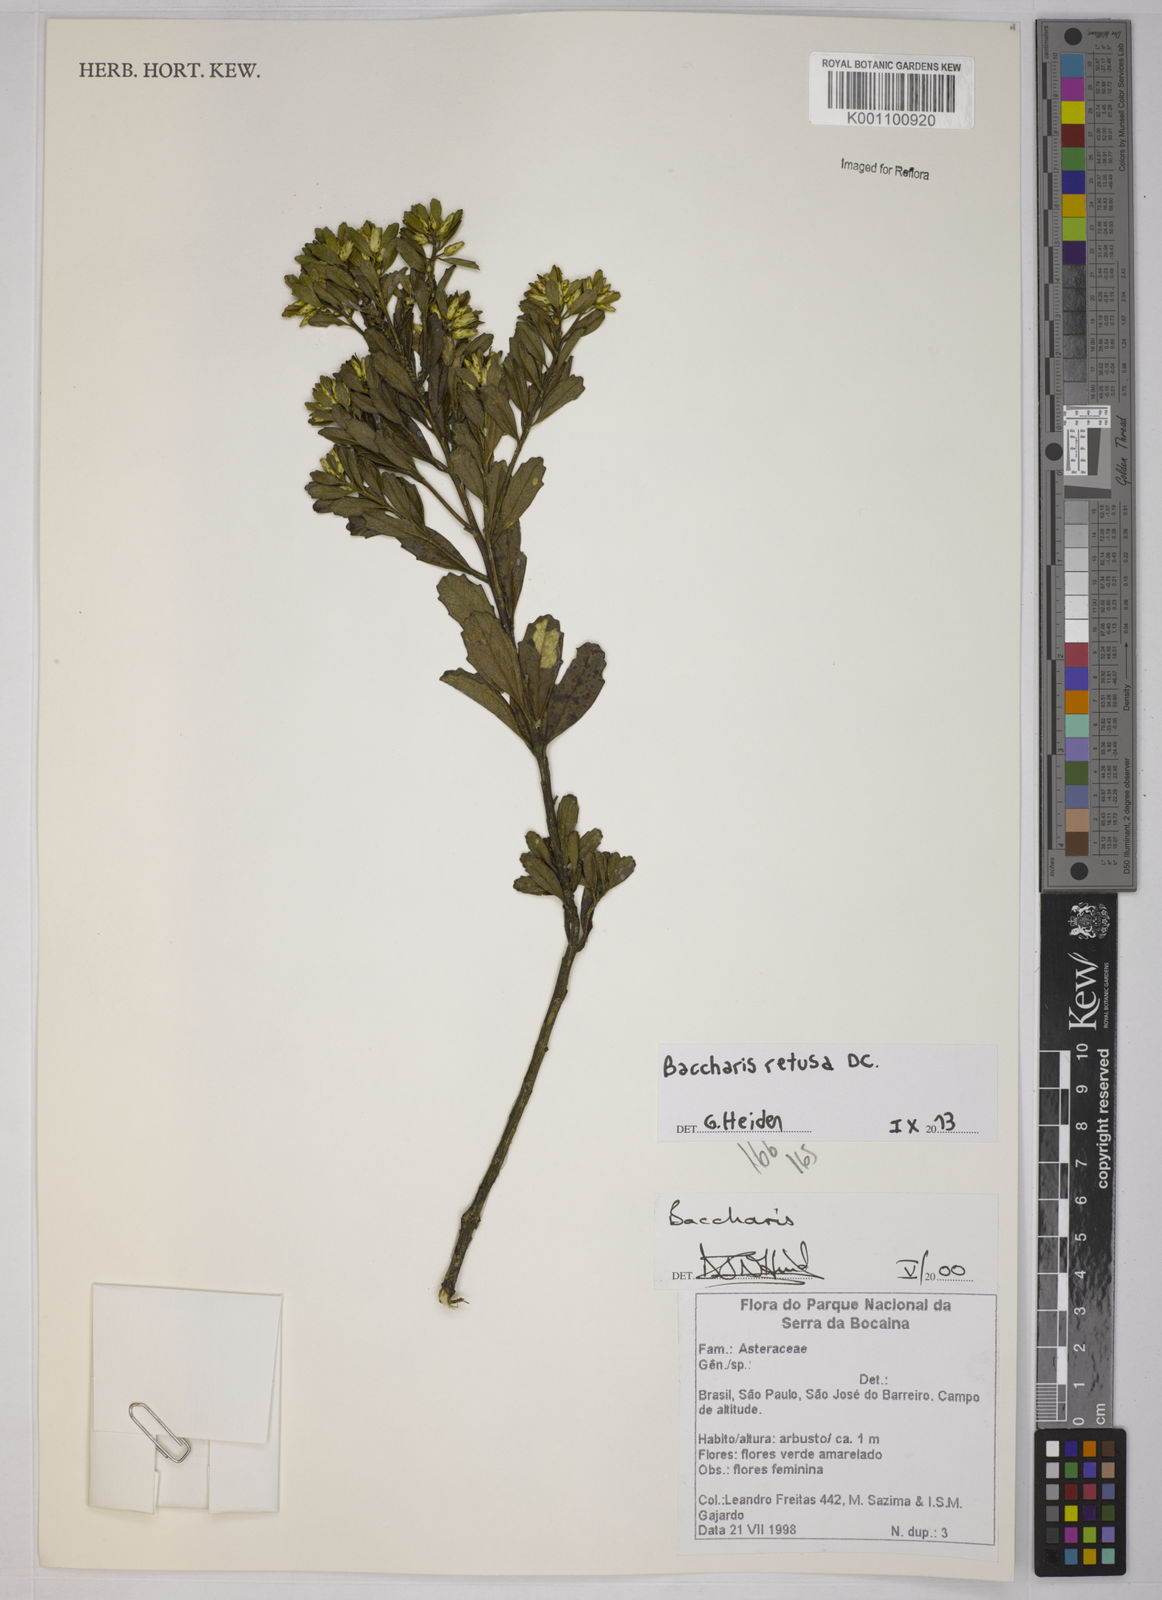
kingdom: Plantae
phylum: Tracheophyta
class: Magnoliopsida
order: Asterales
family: Asteraceae
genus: Baccharis
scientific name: Baccharis retusa
